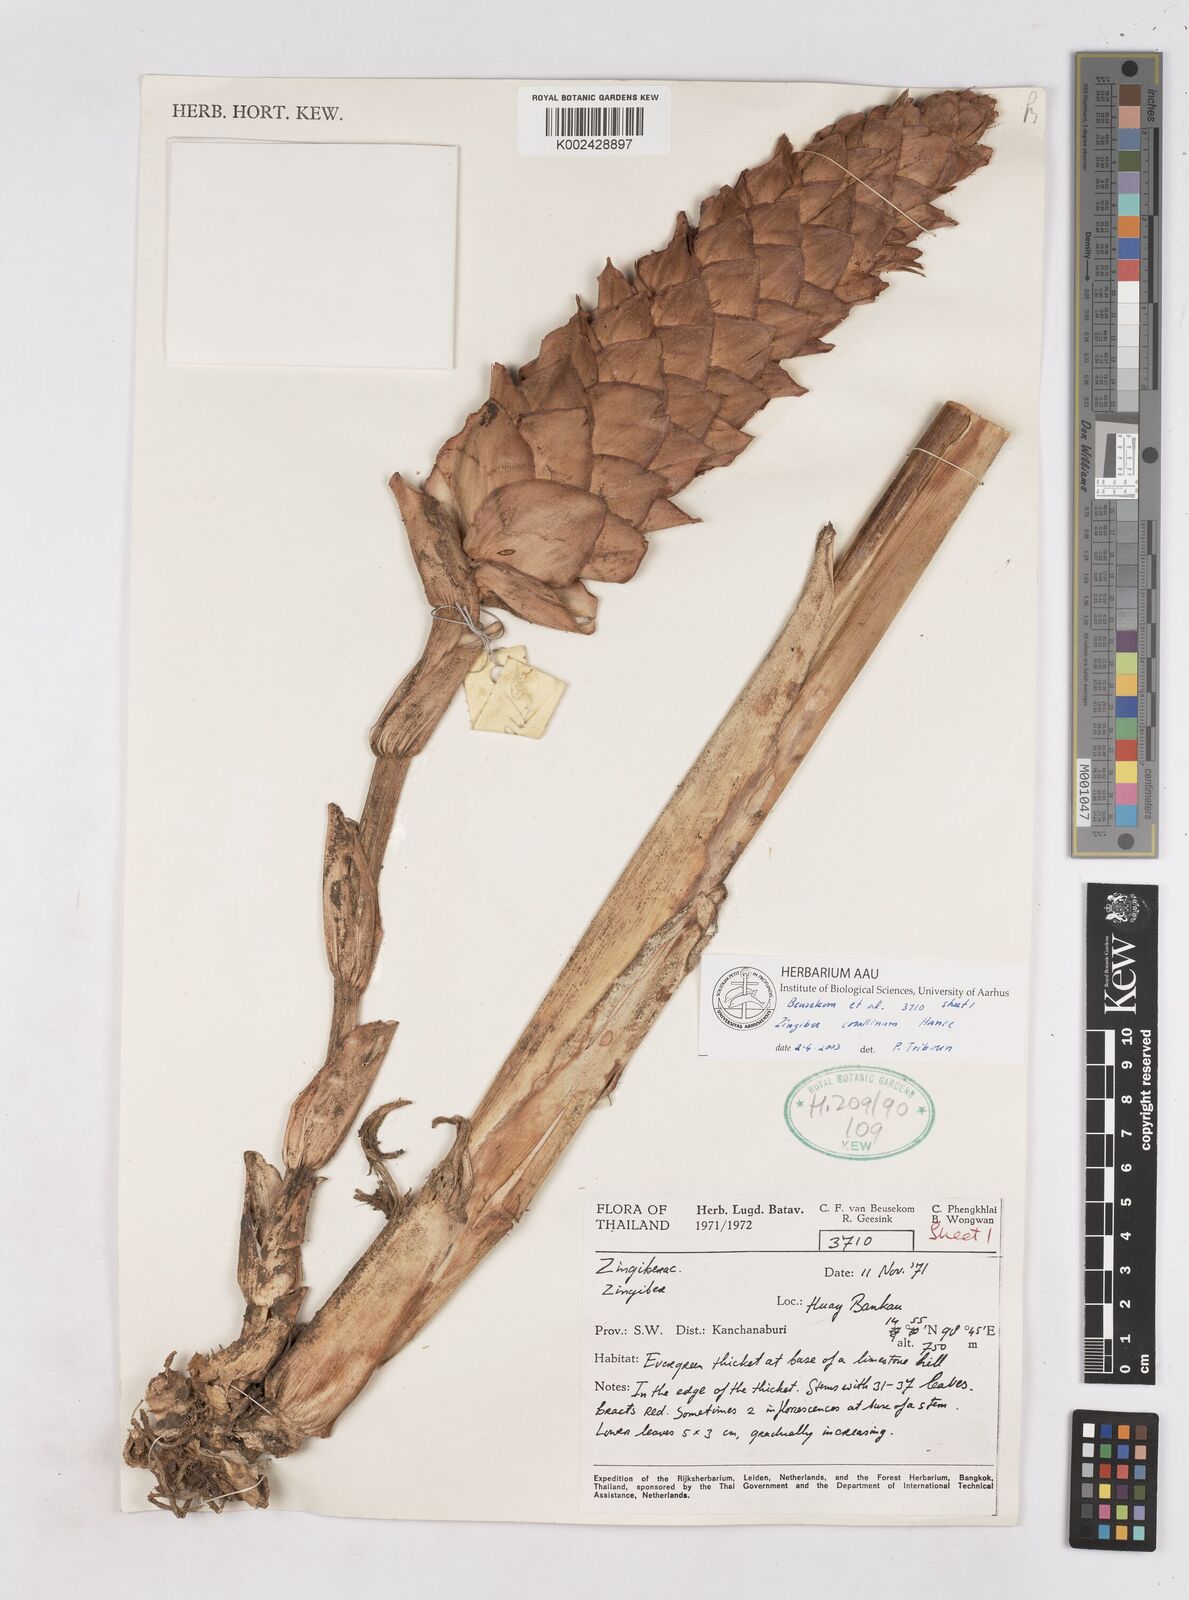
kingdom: Plantae
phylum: Tracheophyta
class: Liliopsida
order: Zingiberales
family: Zingiberaceae
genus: Zingiber
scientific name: Zingiber corallinum
